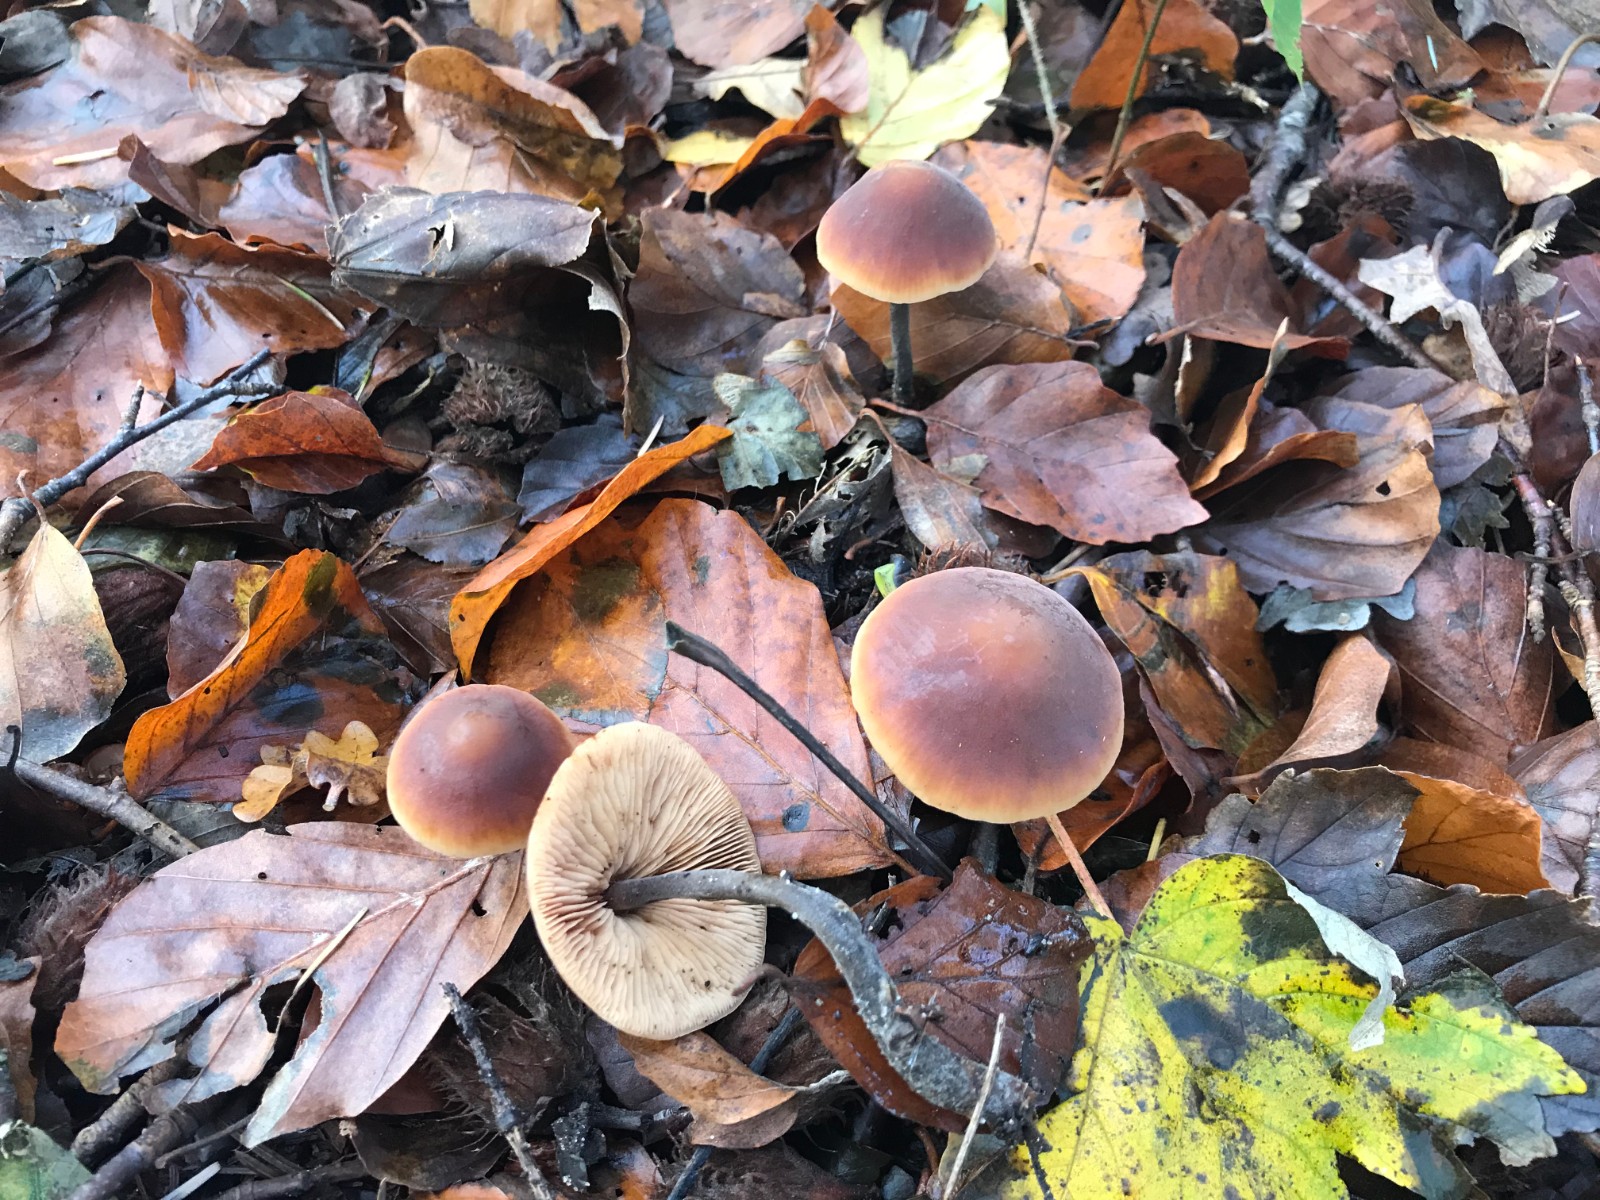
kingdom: Fungi
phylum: Basidiomycota
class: Agaricomycetes
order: Agaricales
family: Macrocystidiaceae
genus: Macrocystidia
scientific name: Macrocystidia cucumis
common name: agurkehat
